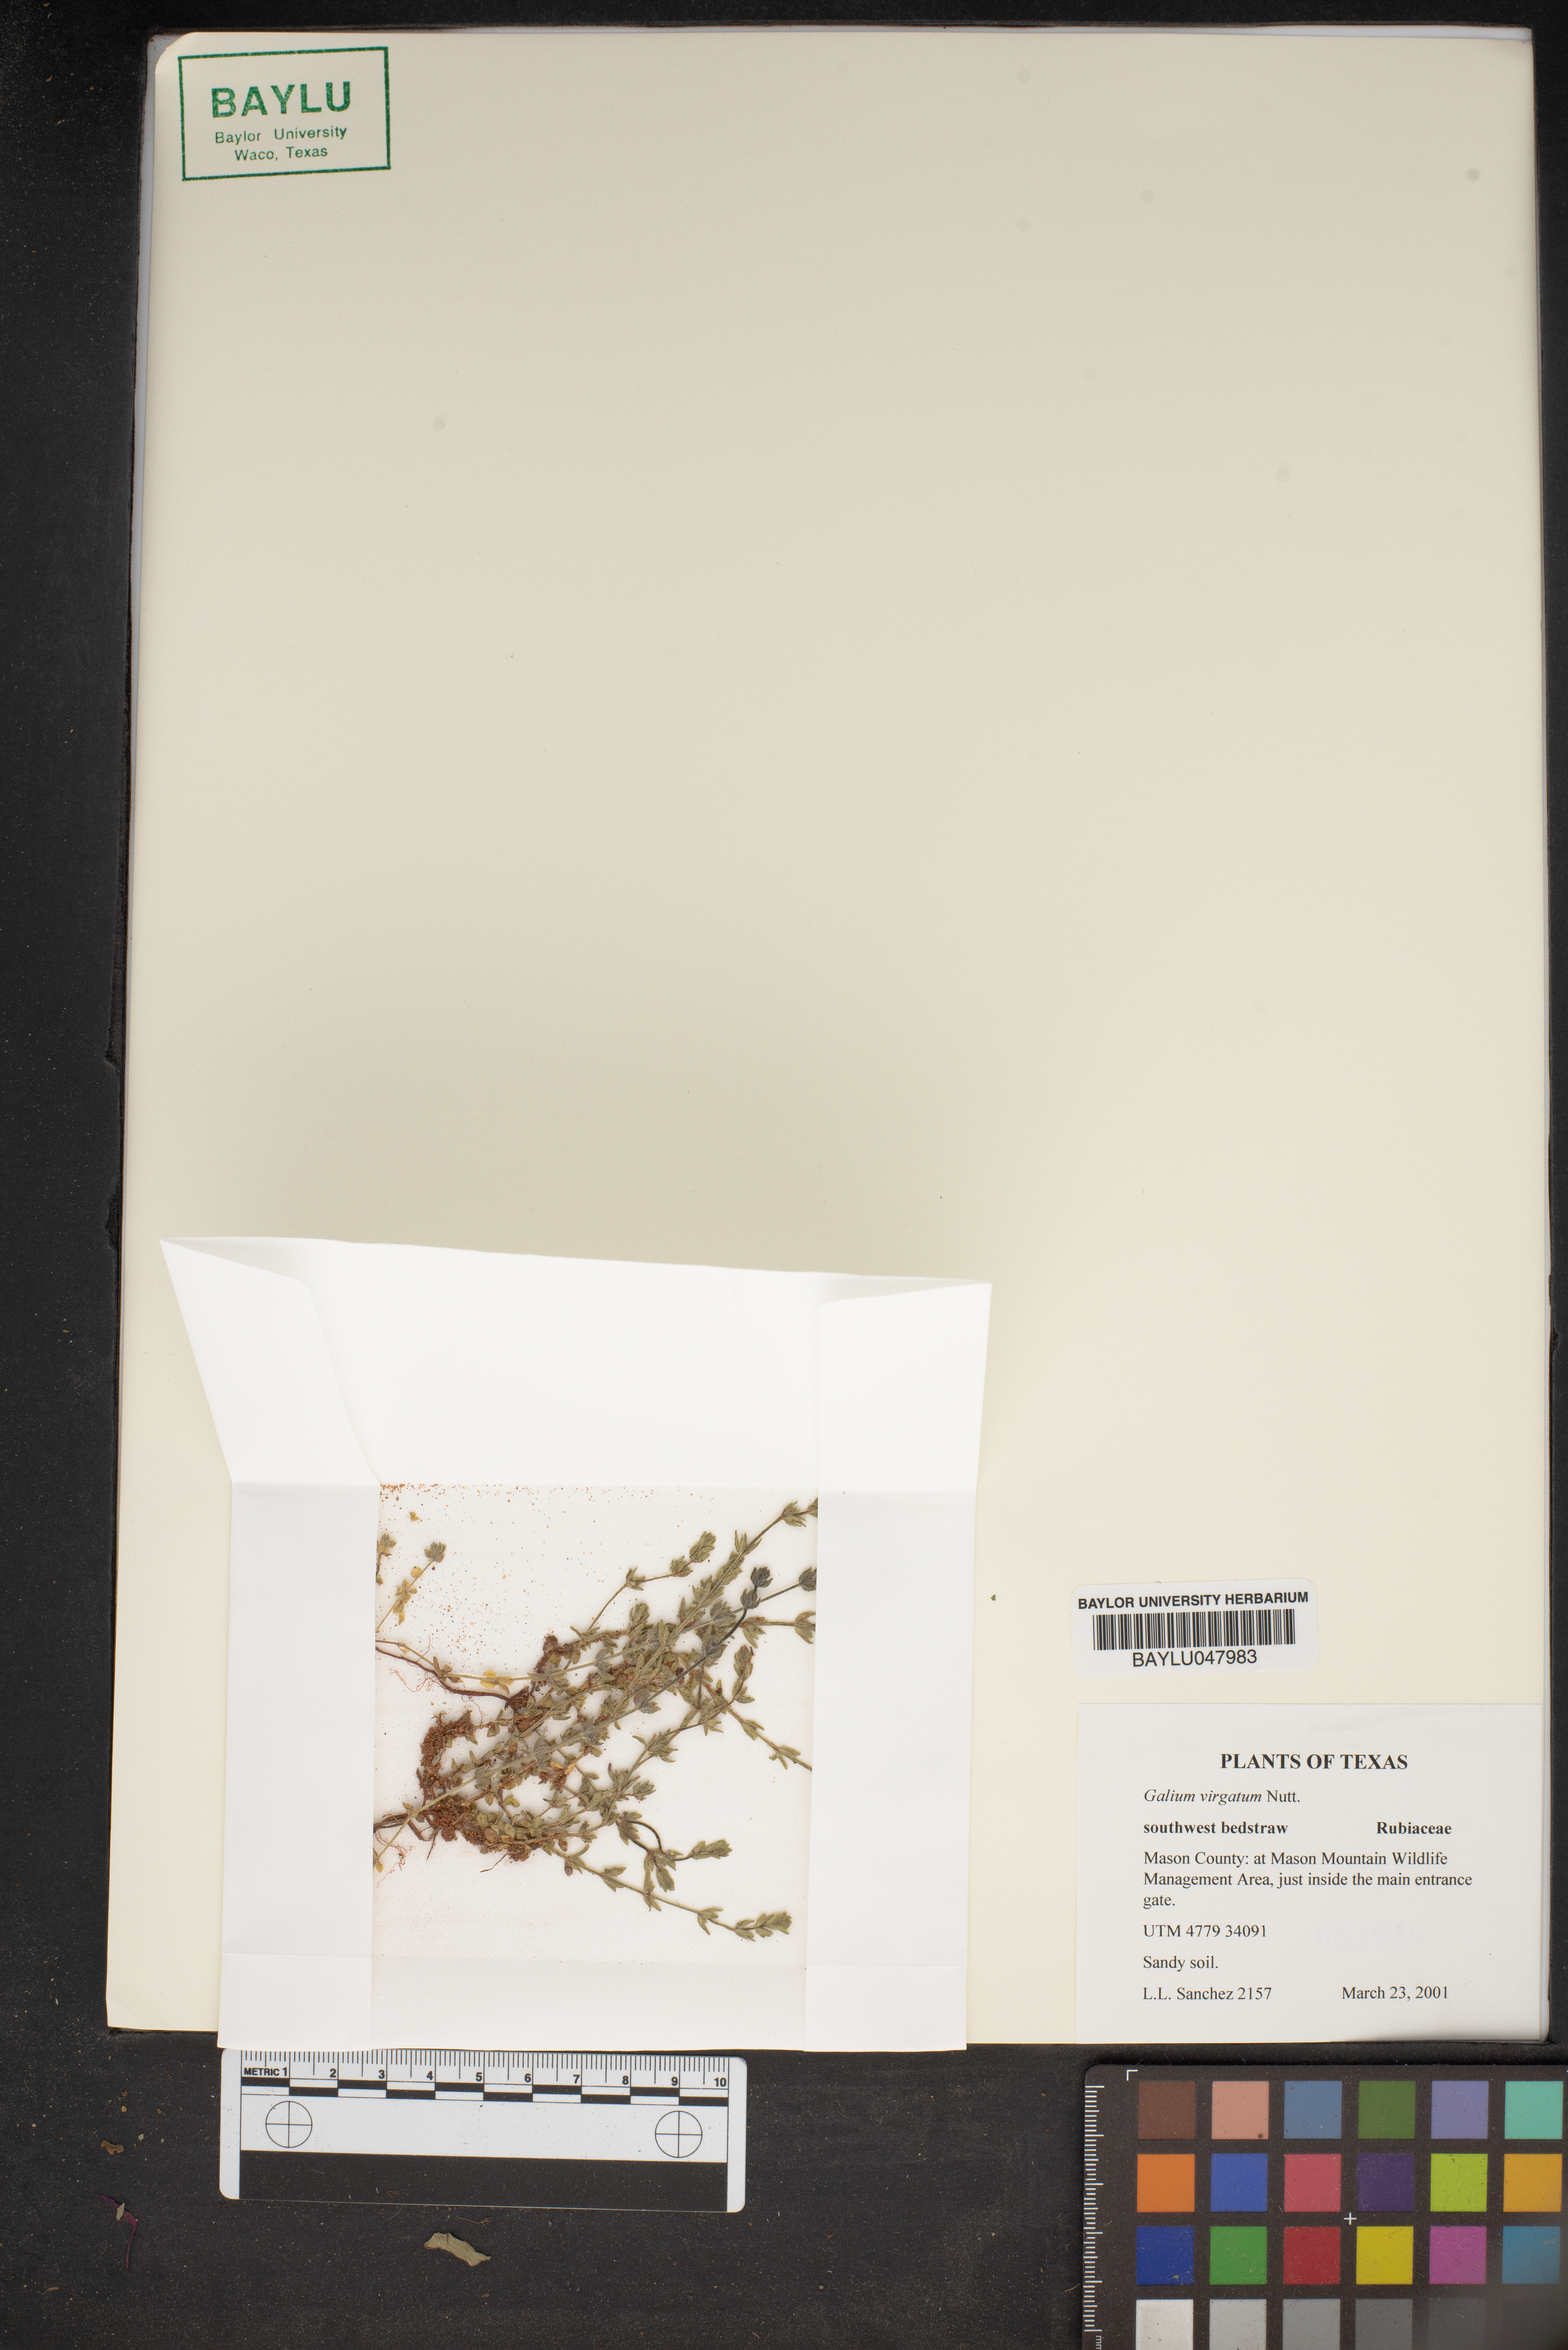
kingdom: Plantae
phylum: Tracheophyta
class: Magnoliopsida
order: Gentianales
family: Rubiaceae
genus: Galium
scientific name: Galium virgatum
